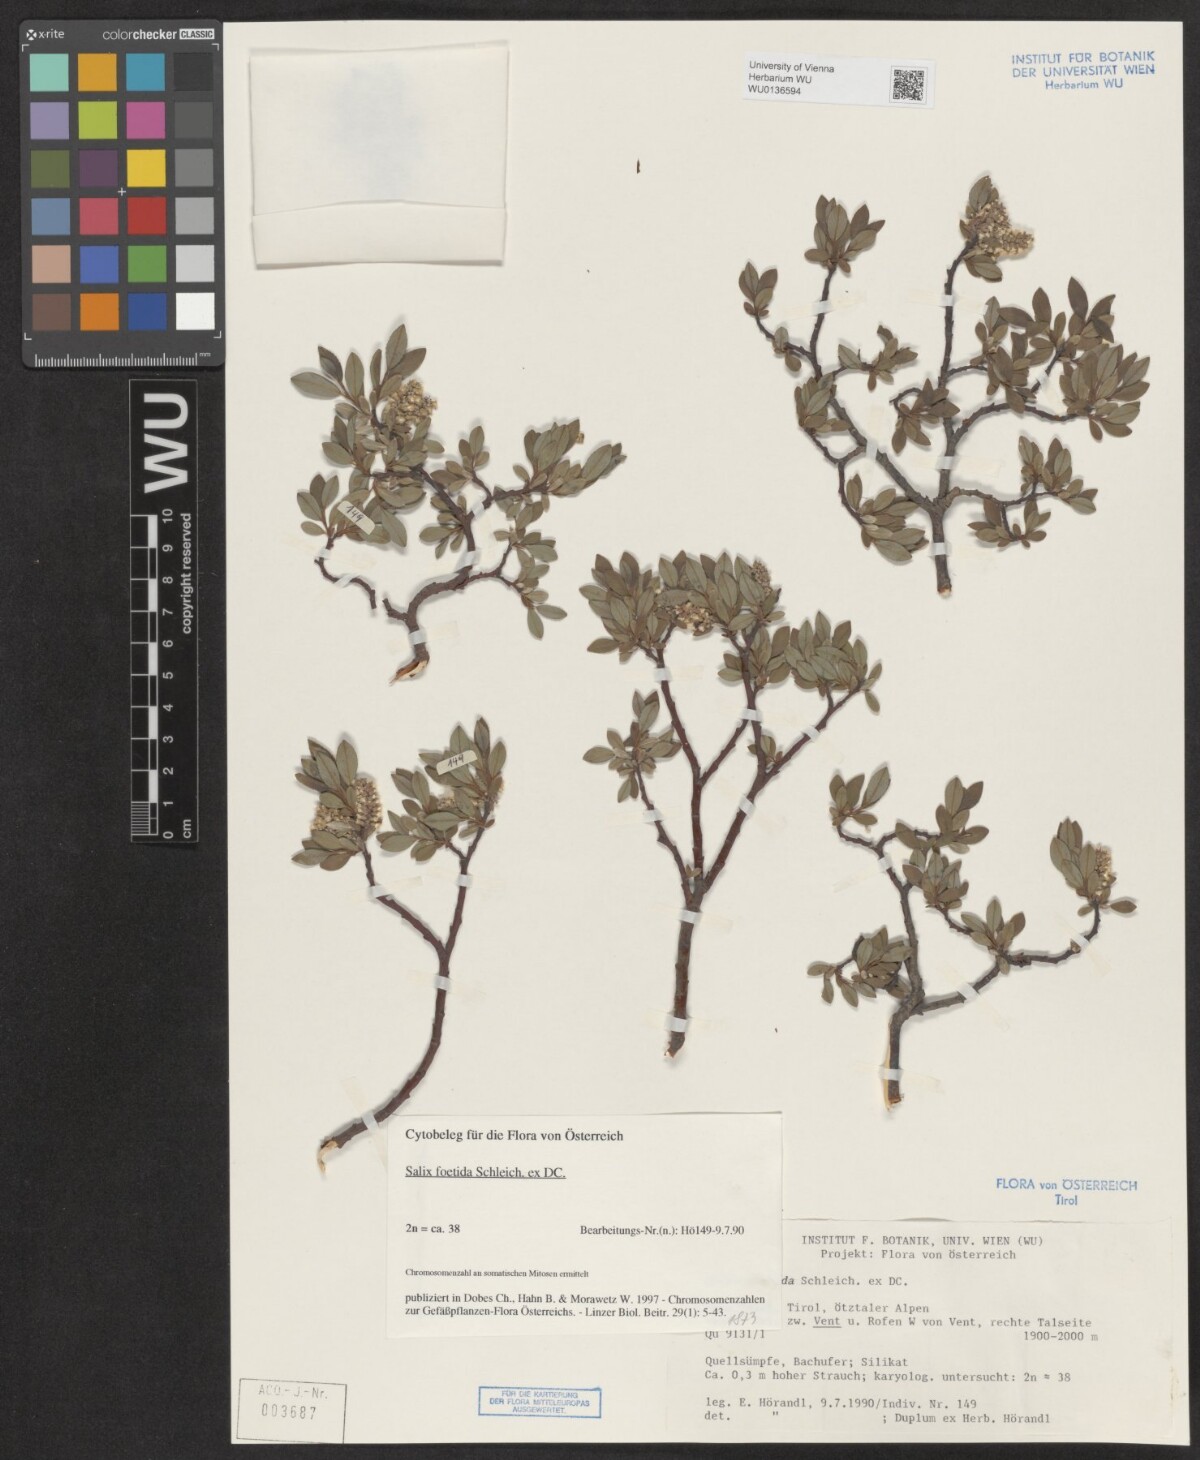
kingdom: Plantae
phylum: Tracheophyta
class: Magnoliopsida
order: Malpighiales
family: Salicaceae
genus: Salix
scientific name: Salix foetida
